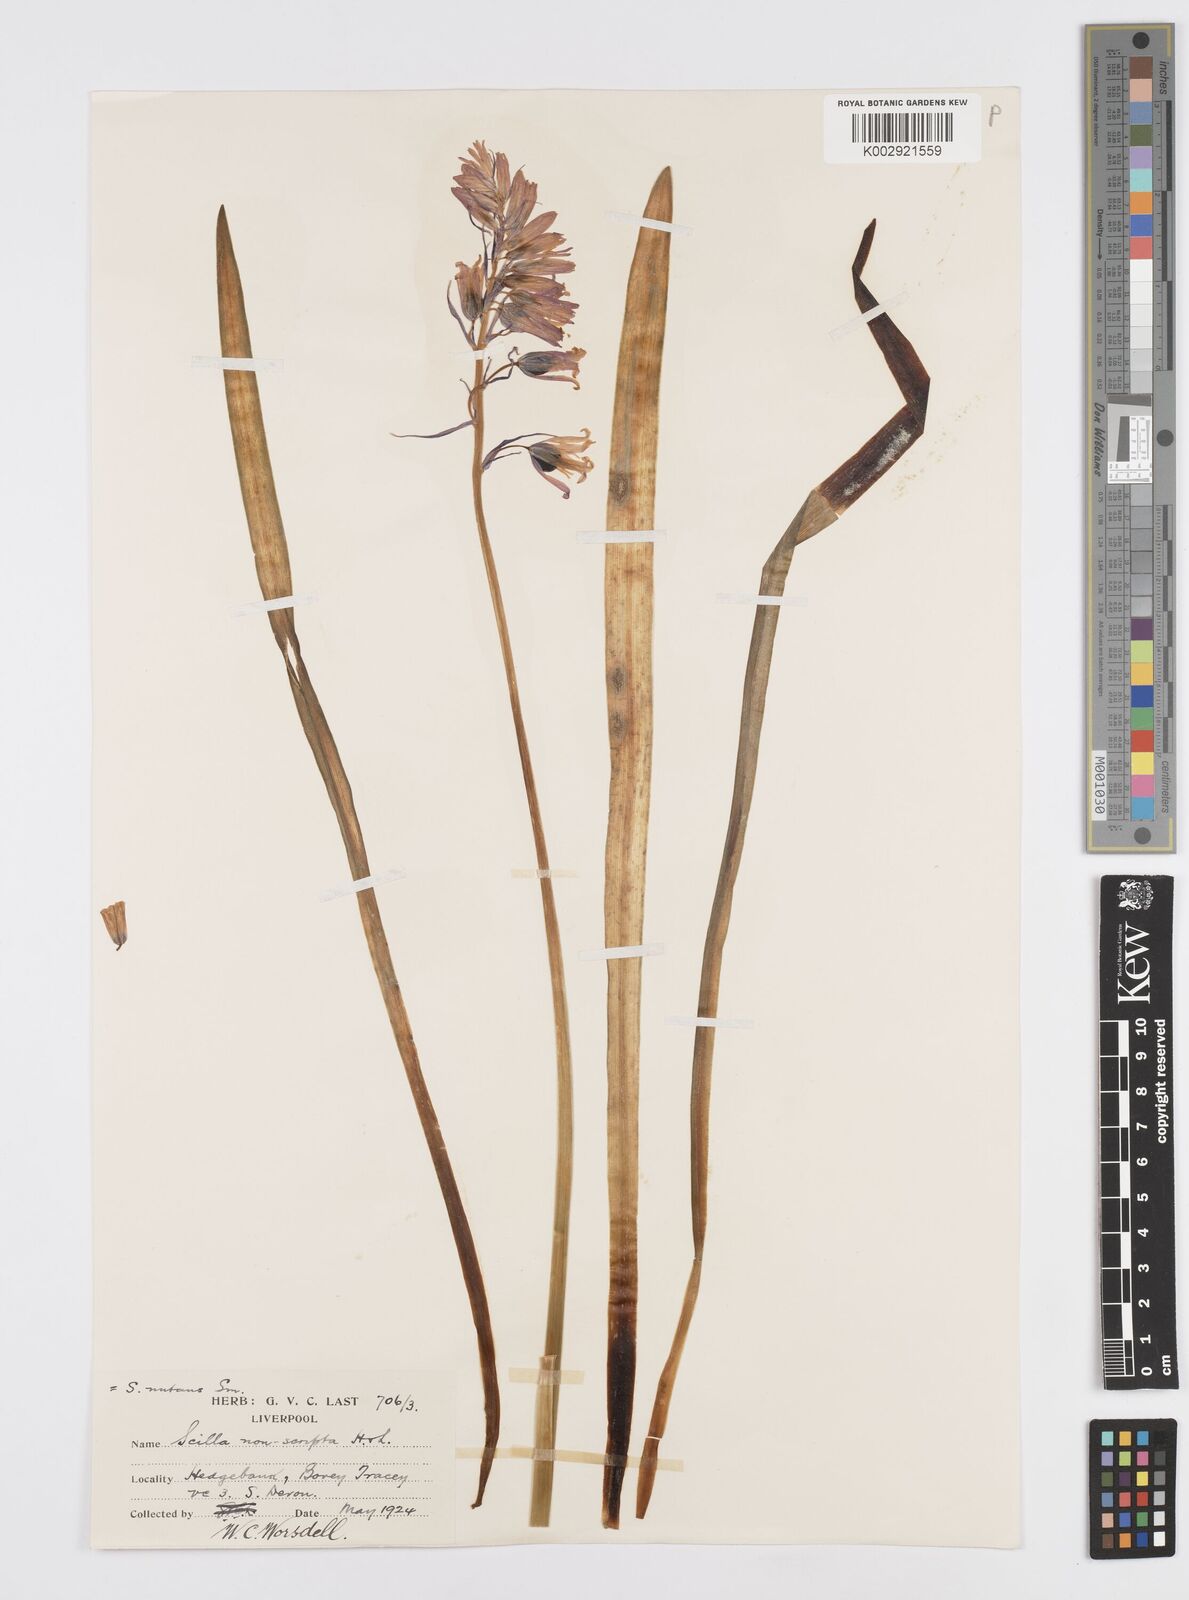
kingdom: Plantae
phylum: Tracheophyta
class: Liliopsida
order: Asparagales
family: Asparagaceae
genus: Hyacinthoides
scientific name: Hyacinthoides non-scripta
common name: Bluebell
